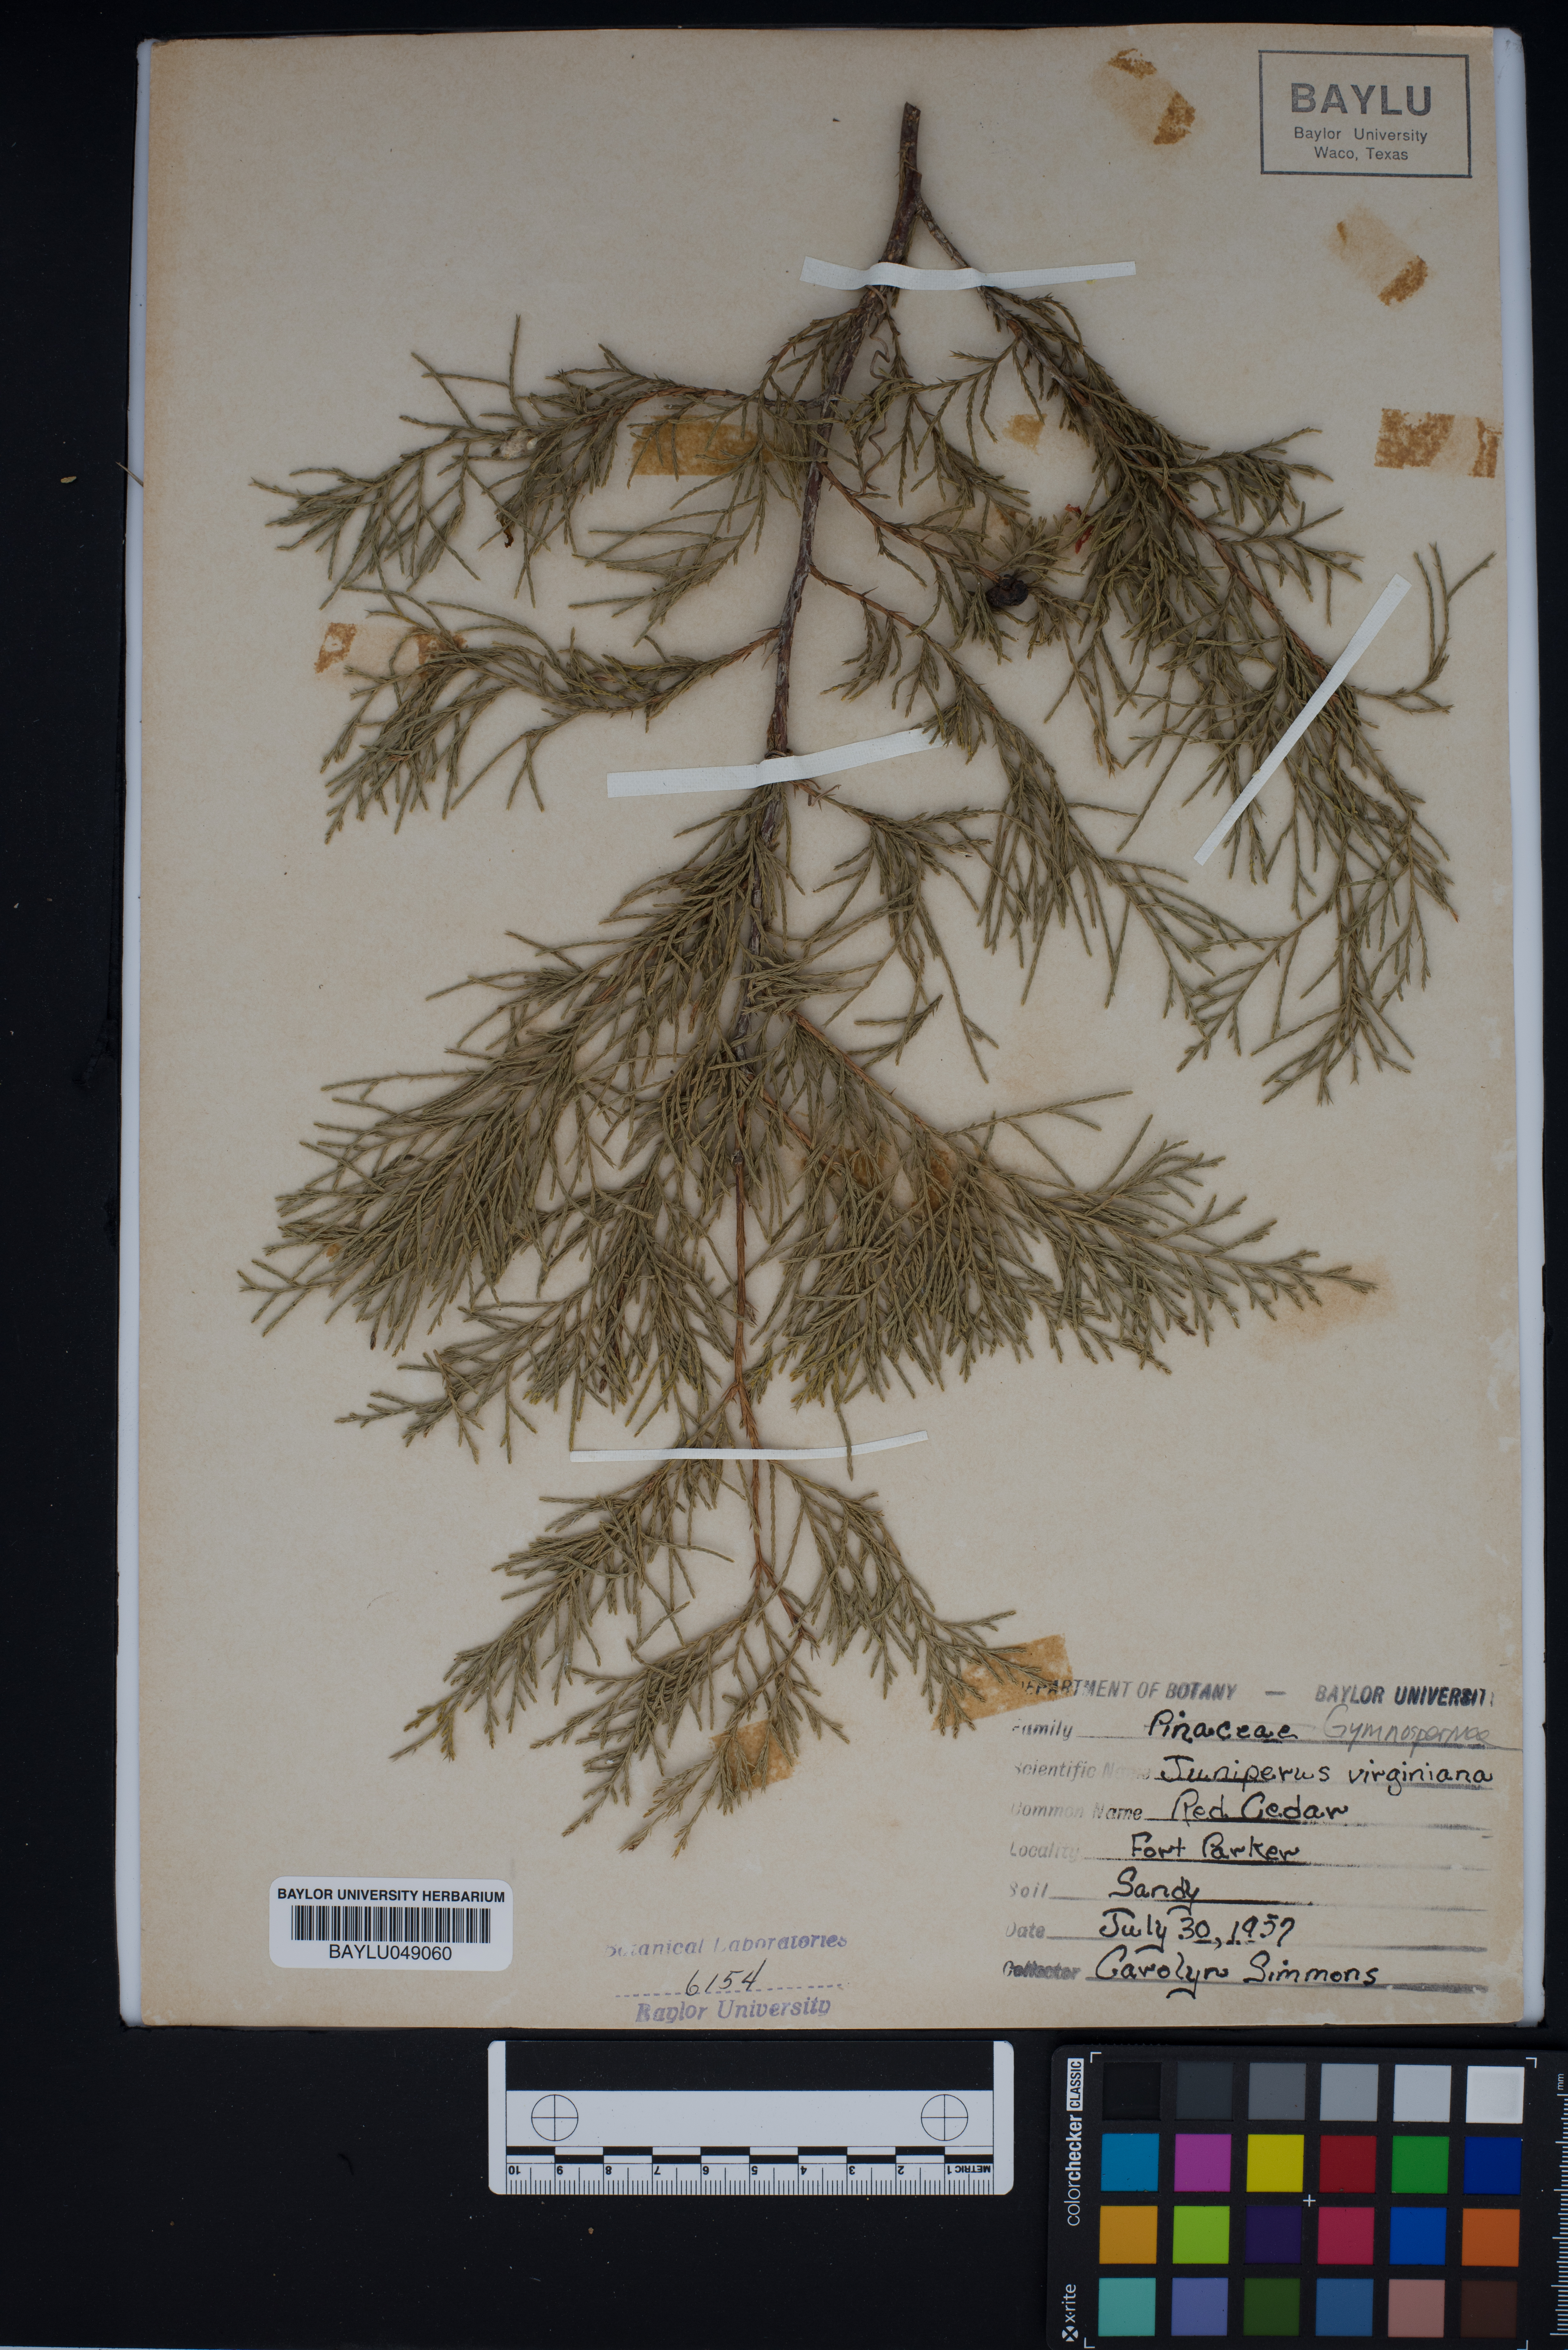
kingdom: Plantae
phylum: Tracheophyta
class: Pinopsida
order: Pinales
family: Cupressaceae
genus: Juniperus
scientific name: Juniperus virginiana
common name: Red juniper
